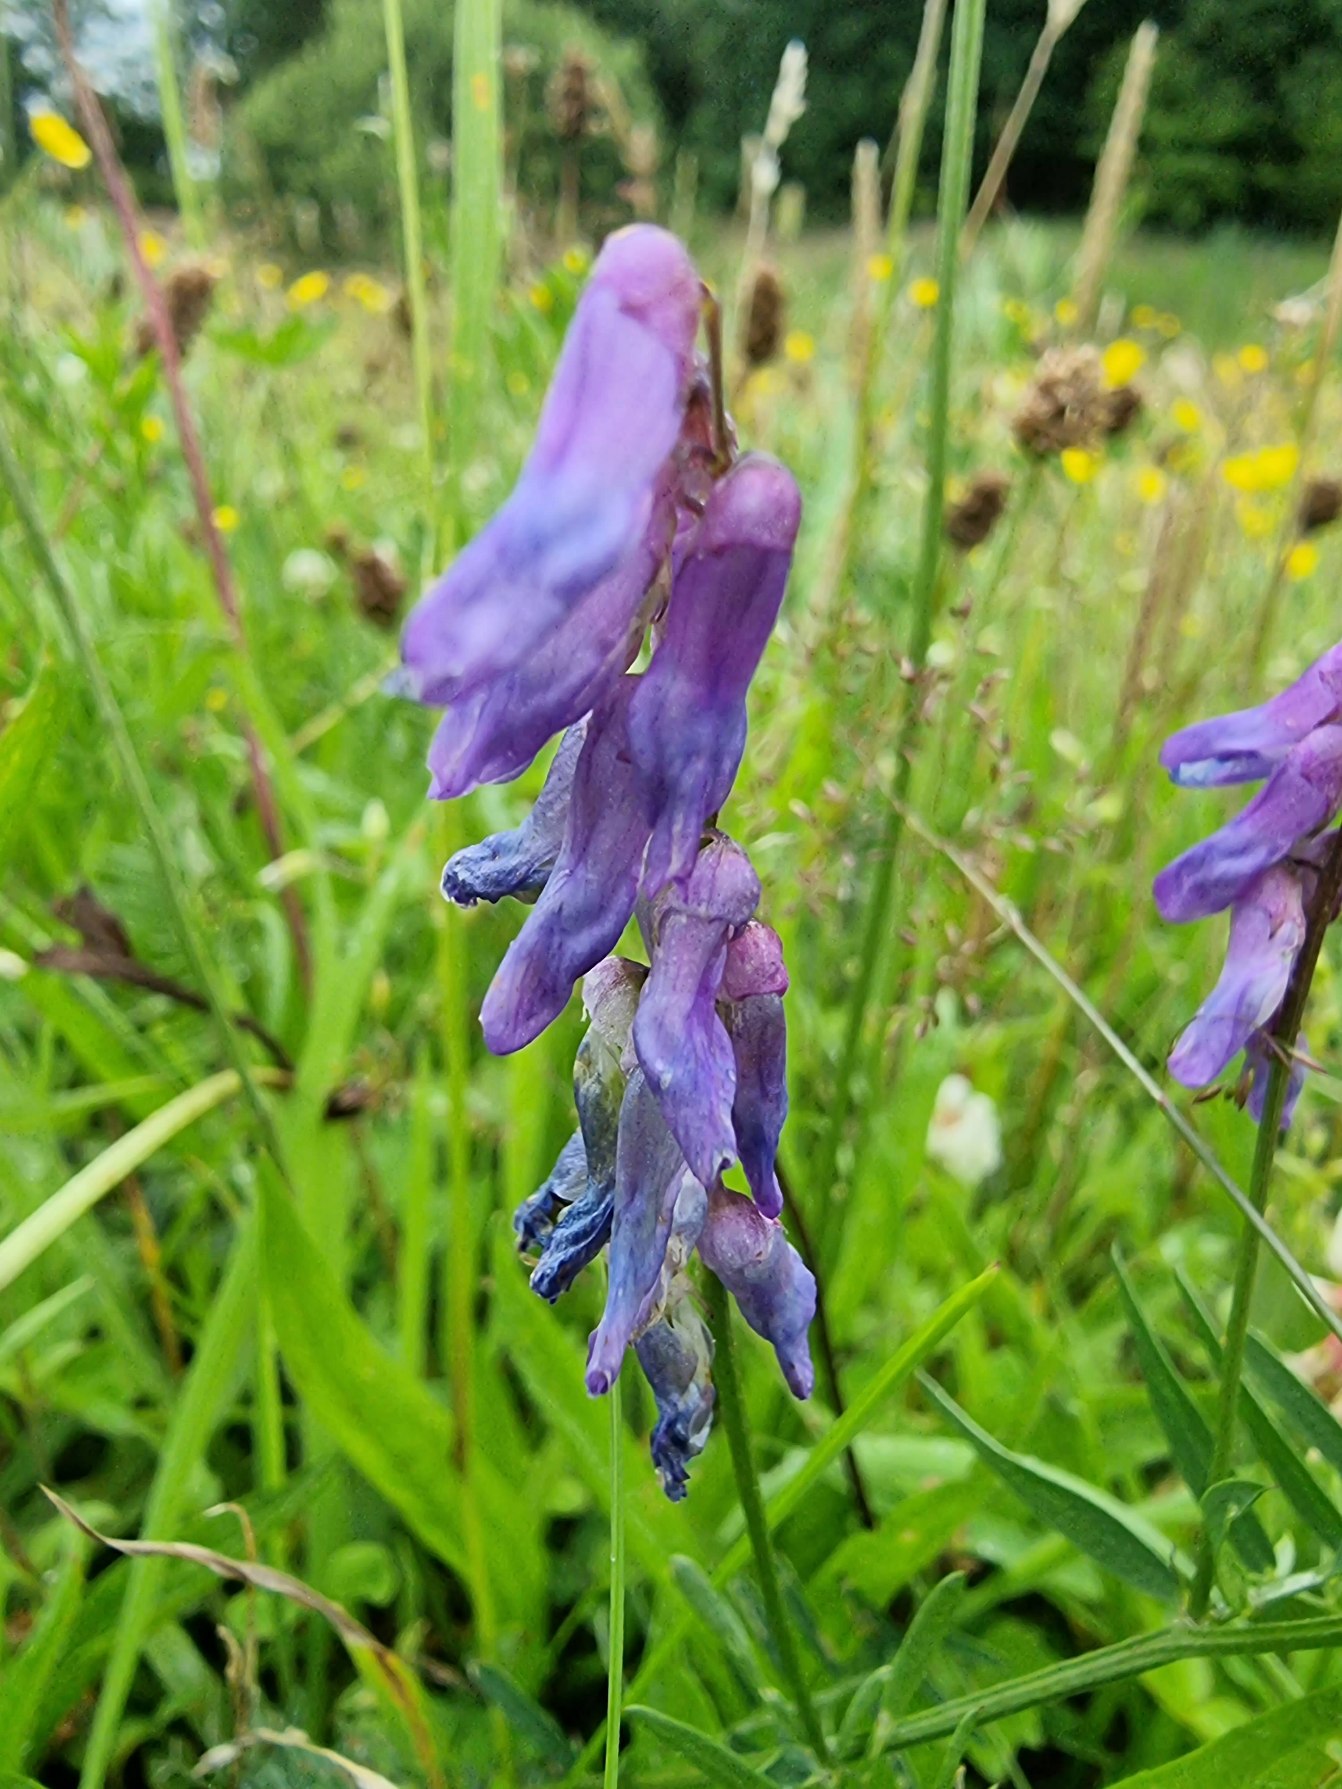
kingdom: Plantae
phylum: Tracheophyta
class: Magnoliopsida
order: Fabales
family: Fabaceae
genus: Vicia
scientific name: Vicia cracca
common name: Muse-vikke
